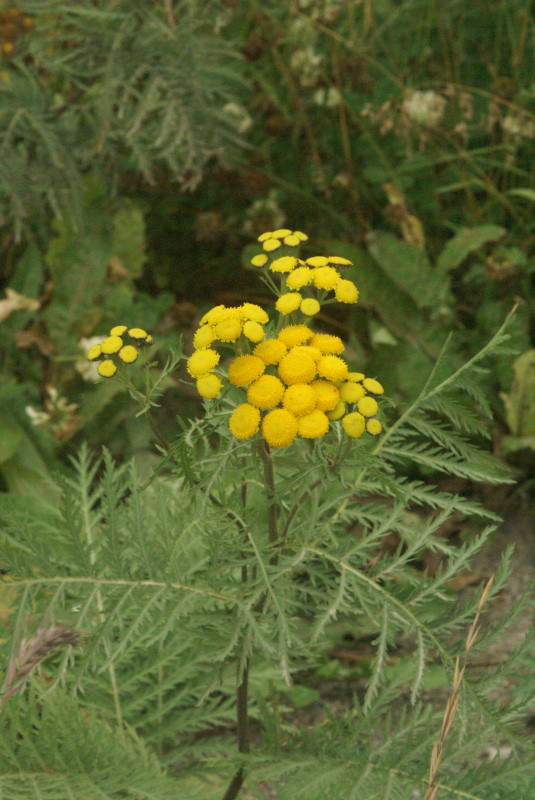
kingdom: Plantae
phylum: Tracheophyta
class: Magnoliopsida
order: Asterales
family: Asteraceae
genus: Tanacetum
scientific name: Tanacetum vulgare
